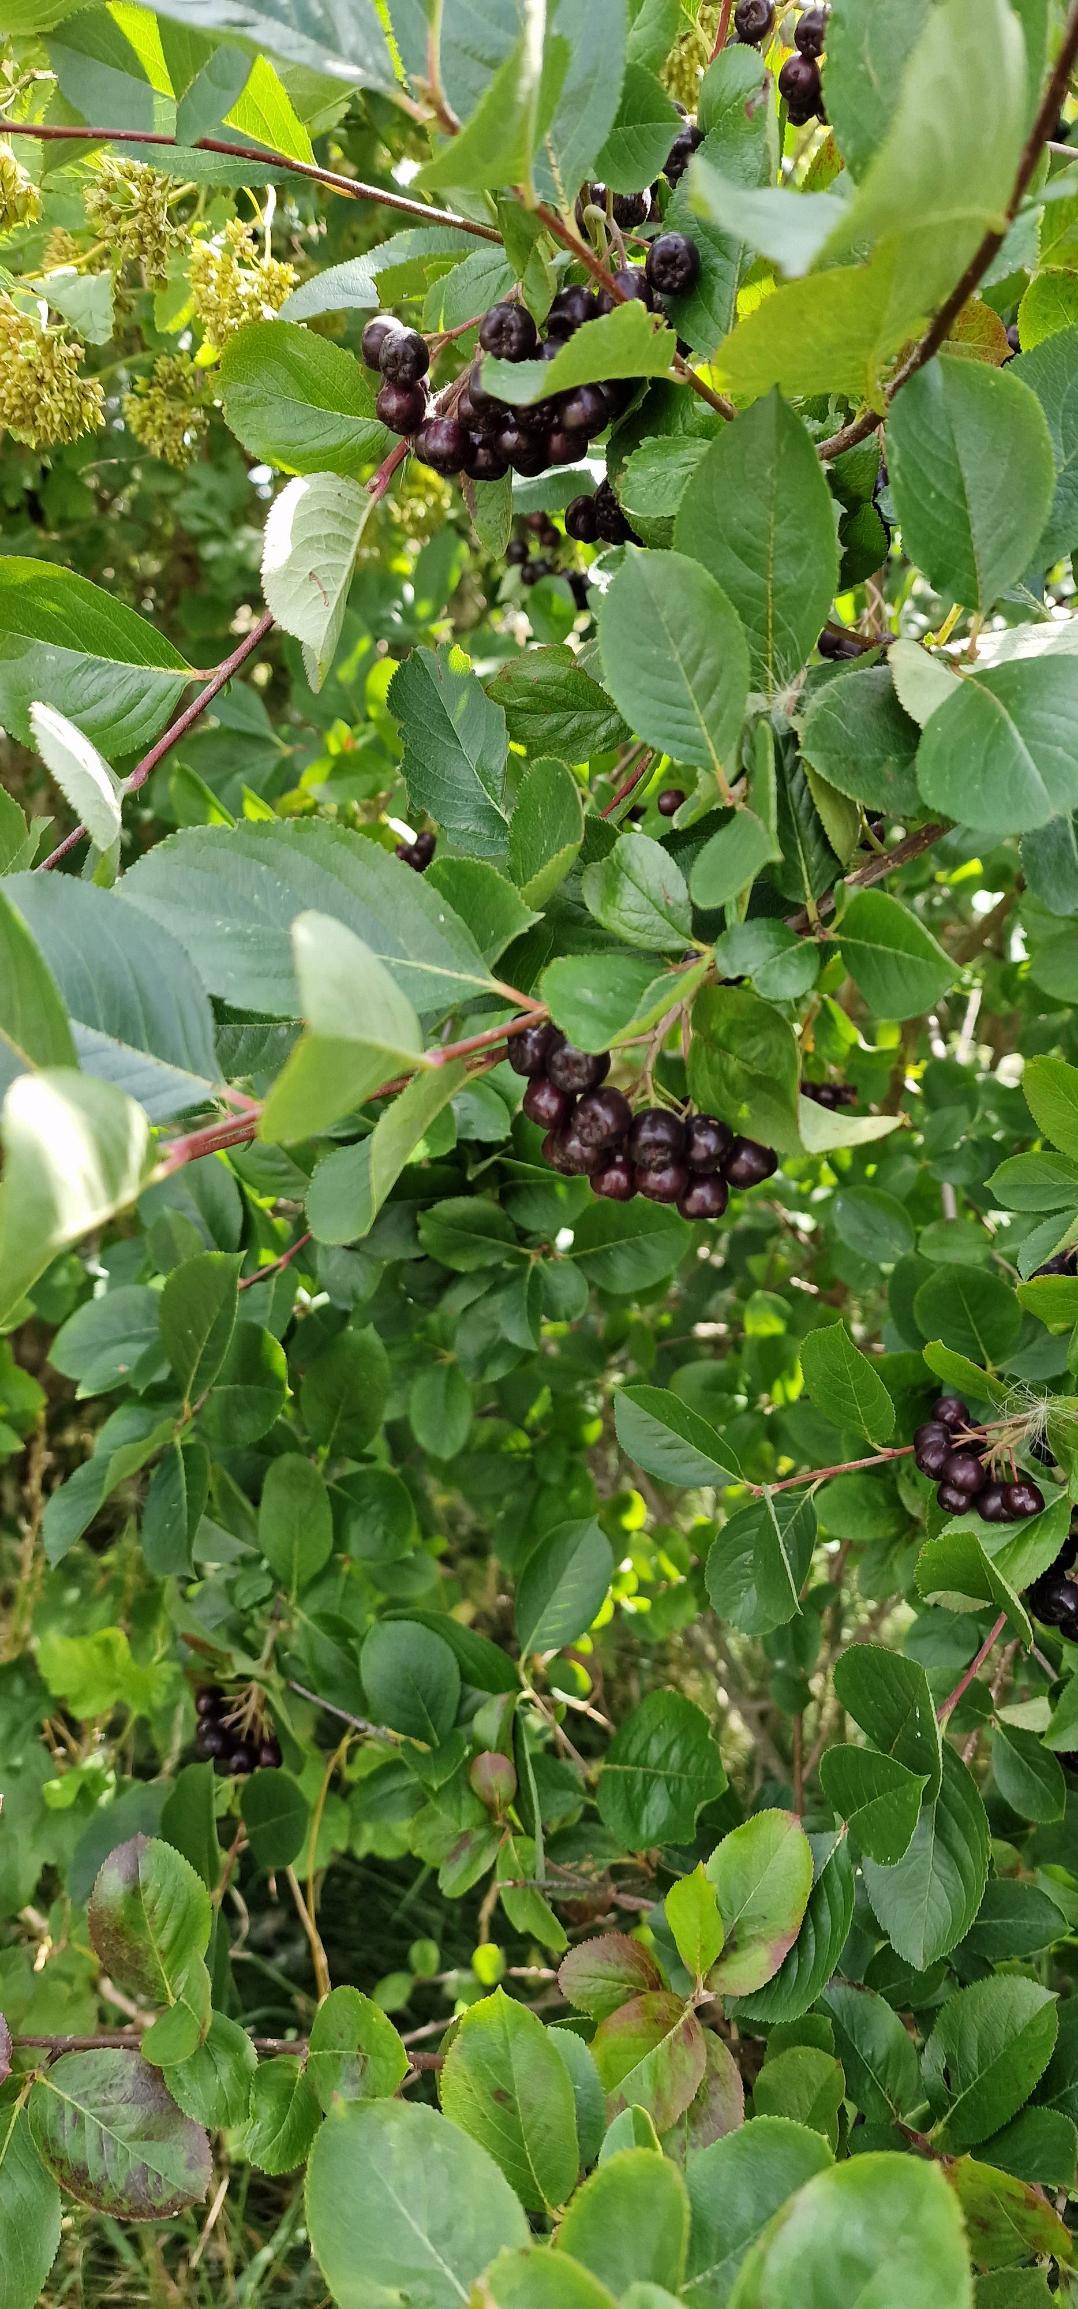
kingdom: Plantae
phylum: Tracheophyta
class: Magnoliopsida
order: Rosales
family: Rosaceae
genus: Aronia
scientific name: Aronia melanocarpa
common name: Sortfrugtet surbær
